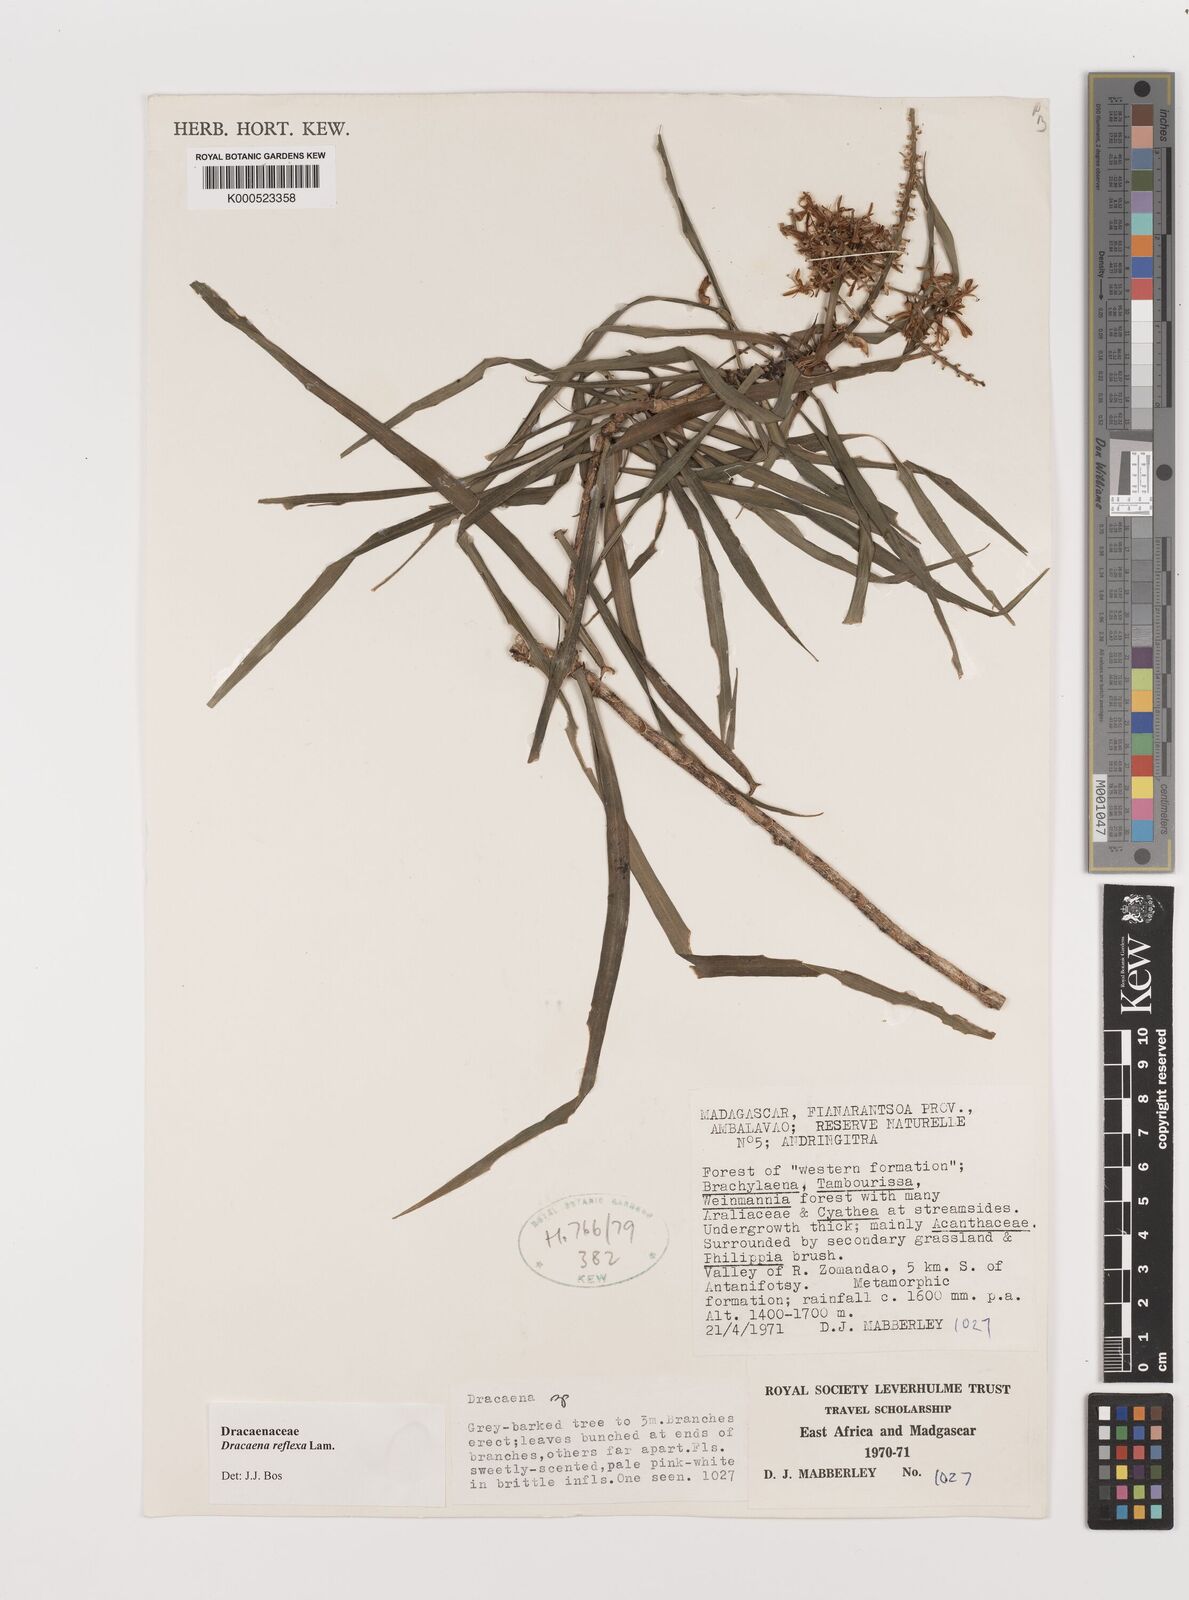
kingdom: Plantae
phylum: Tracheophyta
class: Liliopsida
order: Asparagales
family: Asparagaceae
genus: Dracaena
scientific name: Dracaena reflexa
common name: Song-of-india
